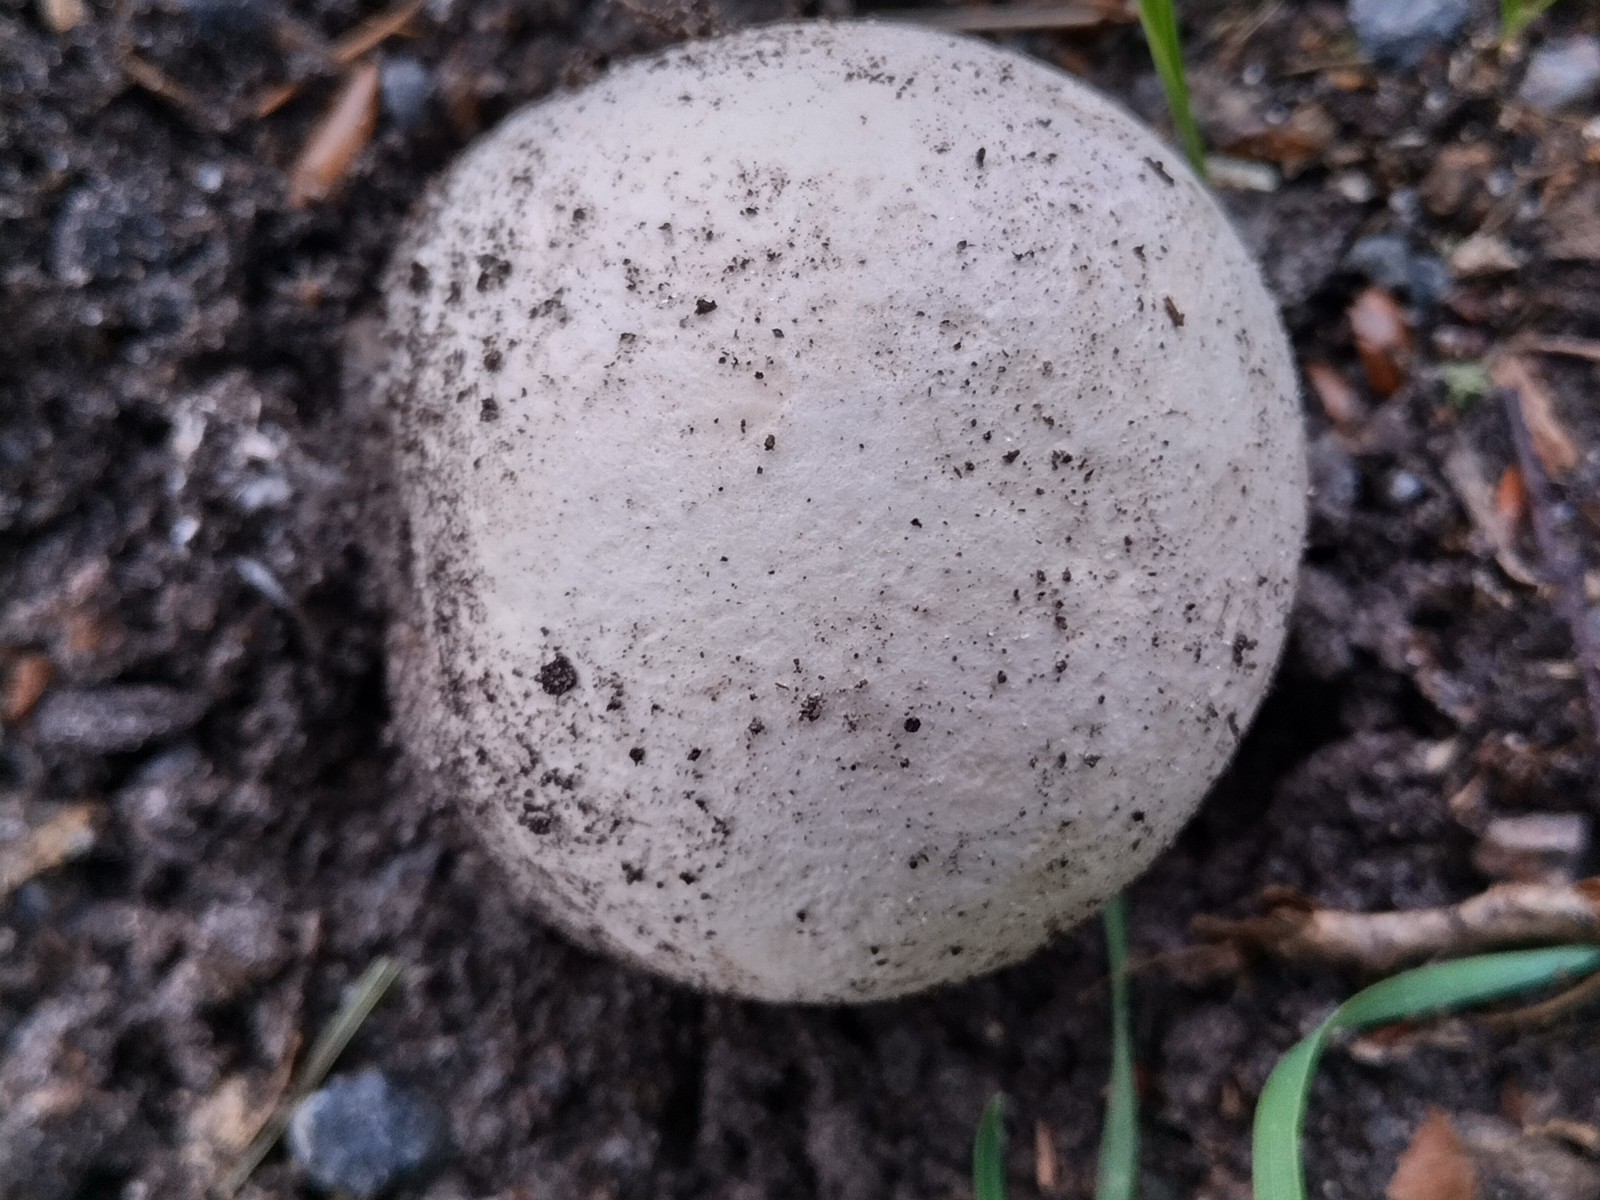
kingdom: Fungi
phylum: Basidiomycota
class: Agaricomycetes
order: Agaricales
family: Lycoperdaceae
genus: Calvatia
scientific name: Calvatia gigantea
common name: kæmpestøvbold
